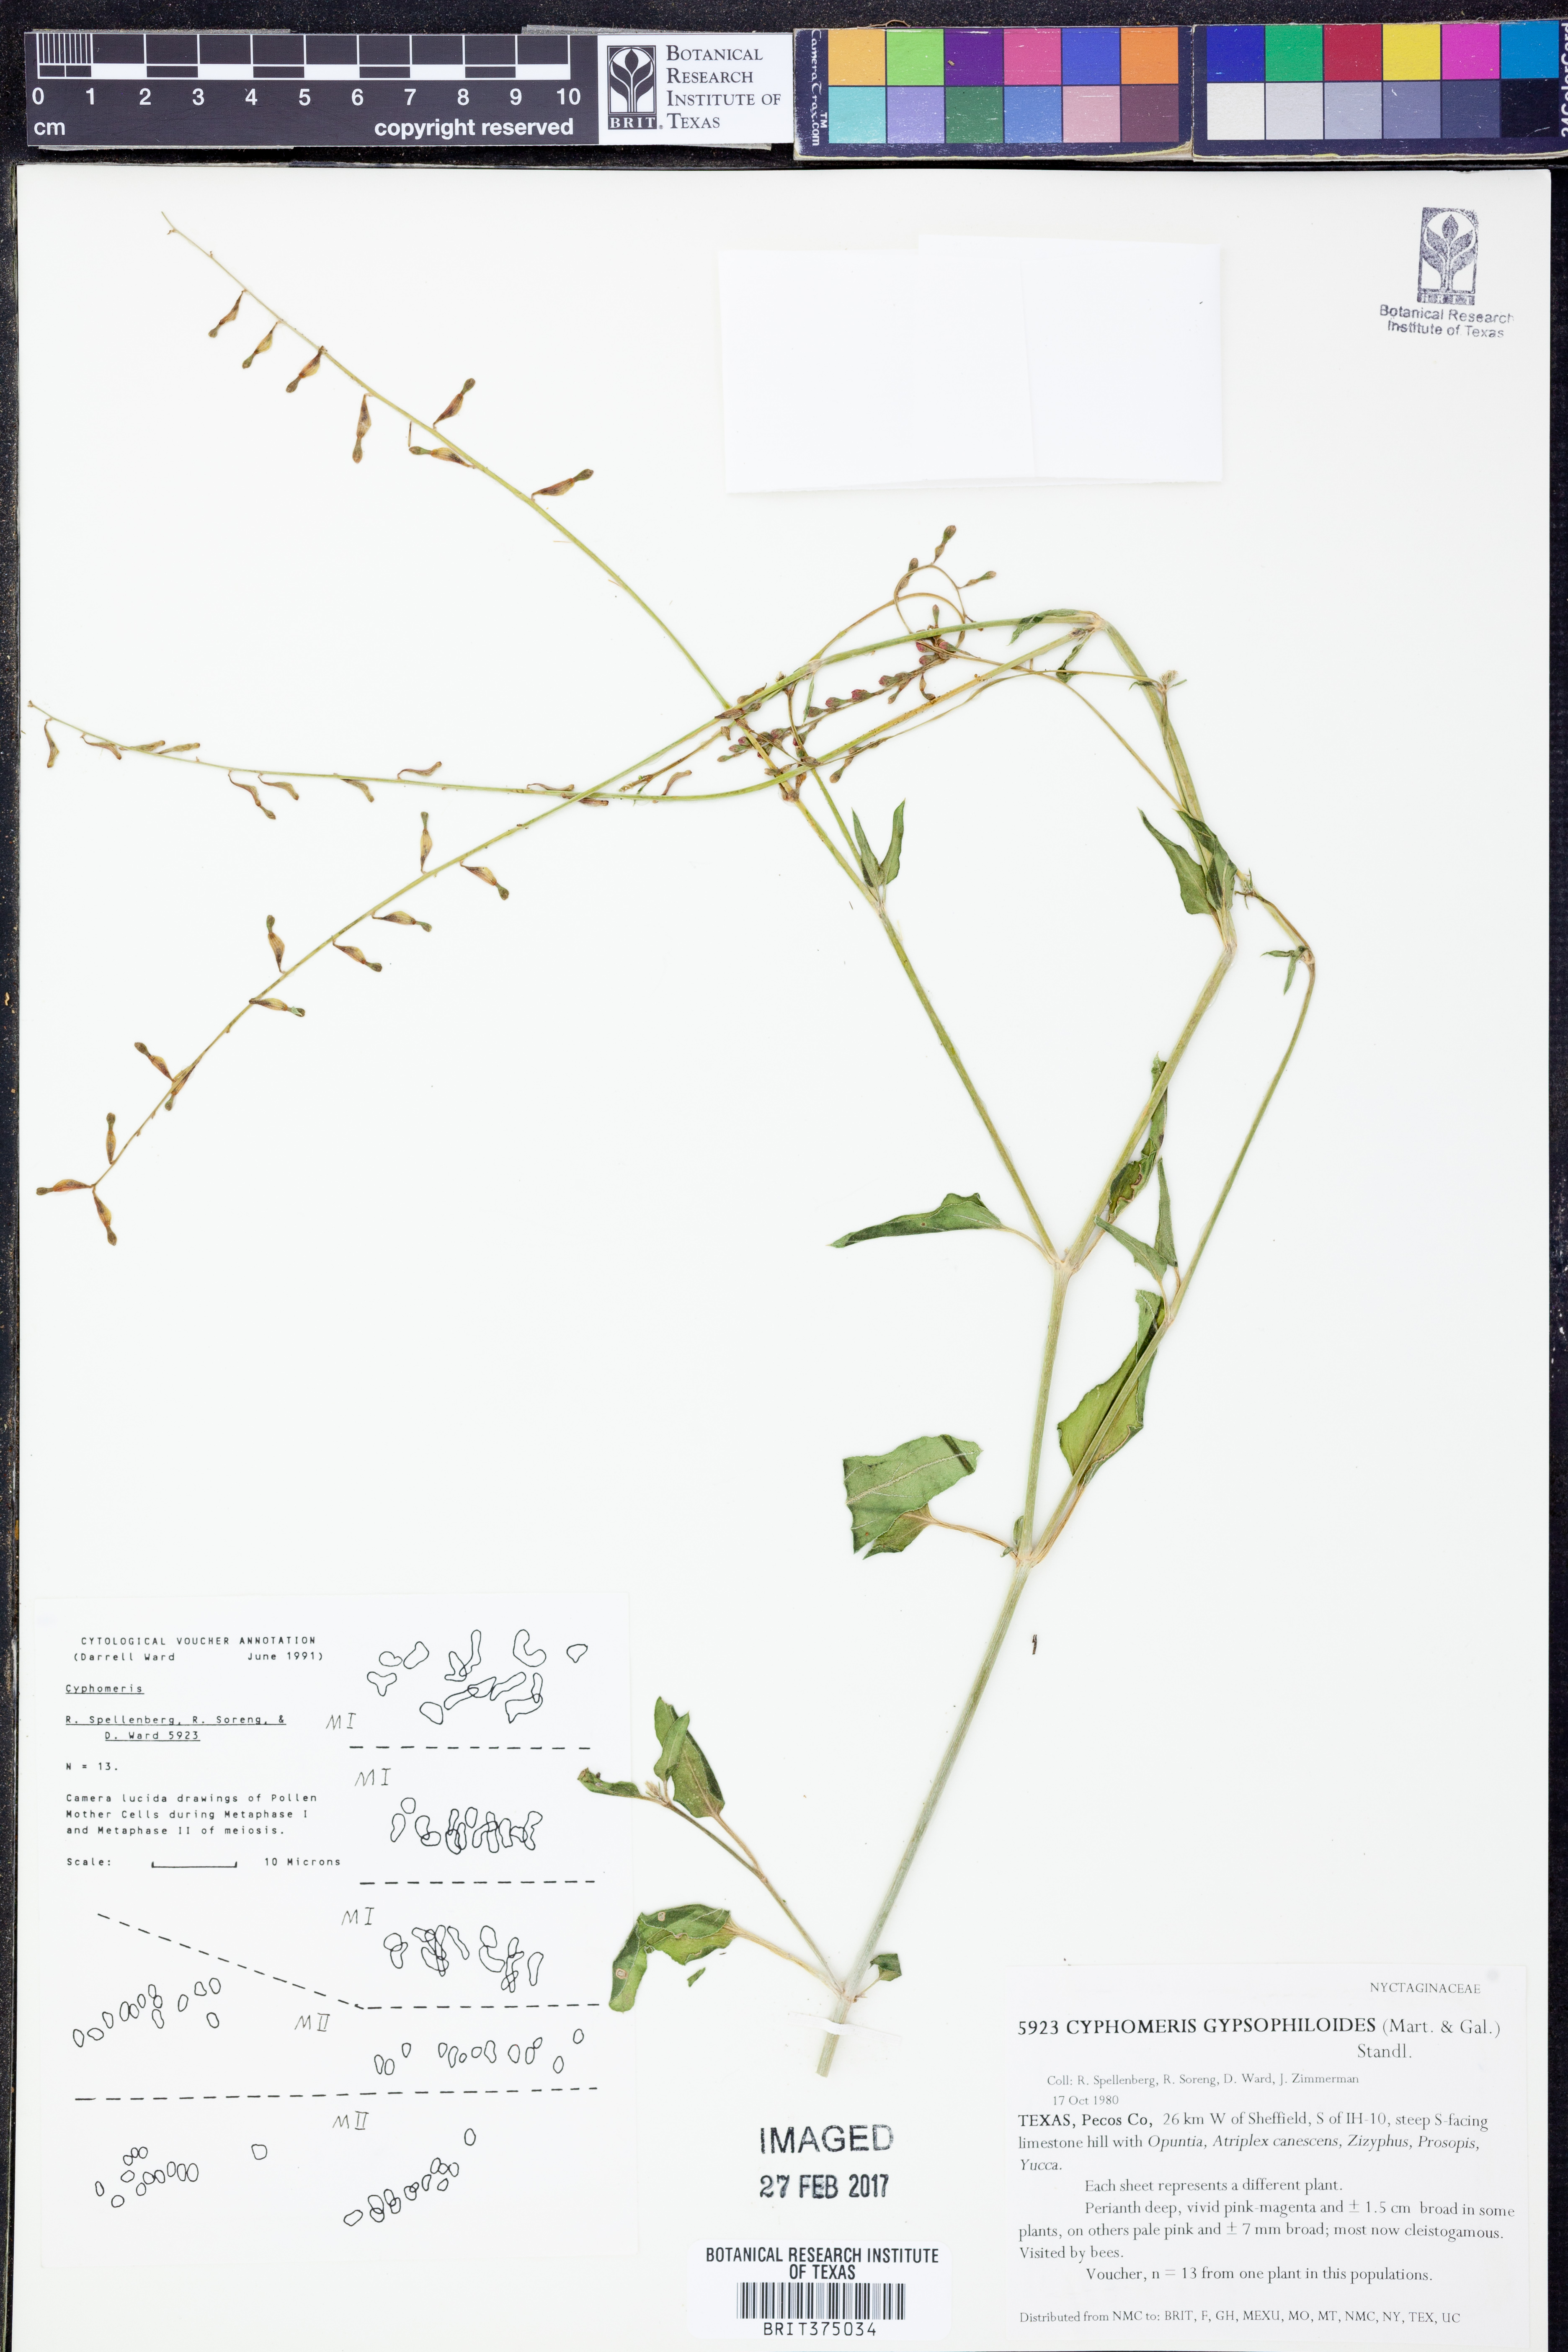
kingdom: Plantae
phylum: Tracheophyta
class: Magnoliopsida
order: Caryophyllales
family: Nyctaginaceae
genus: Cyphomeris
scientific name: Cyphomeris gypsophiloides
